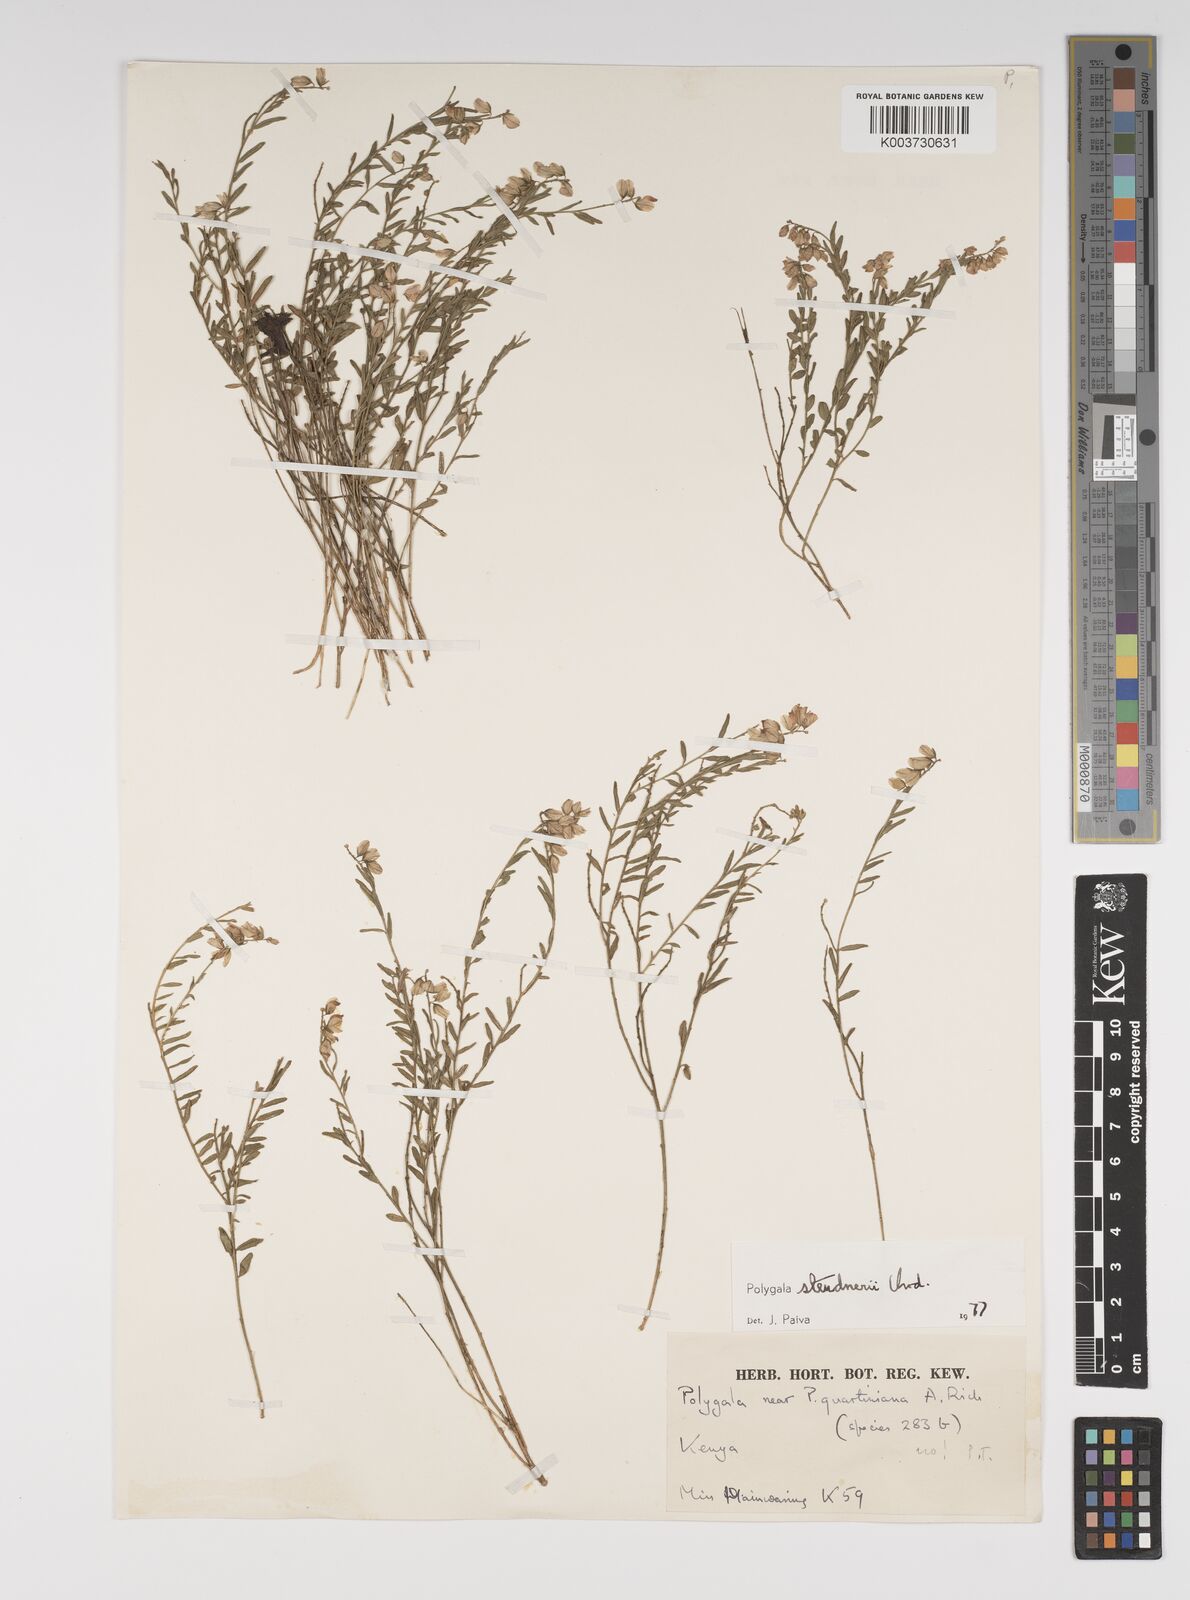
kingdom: Plantae
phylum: Tracheophyta
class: Magnoliopsida
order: Fabales
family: Polygalaceae
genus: Polygala
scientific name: Polygala steudneri
